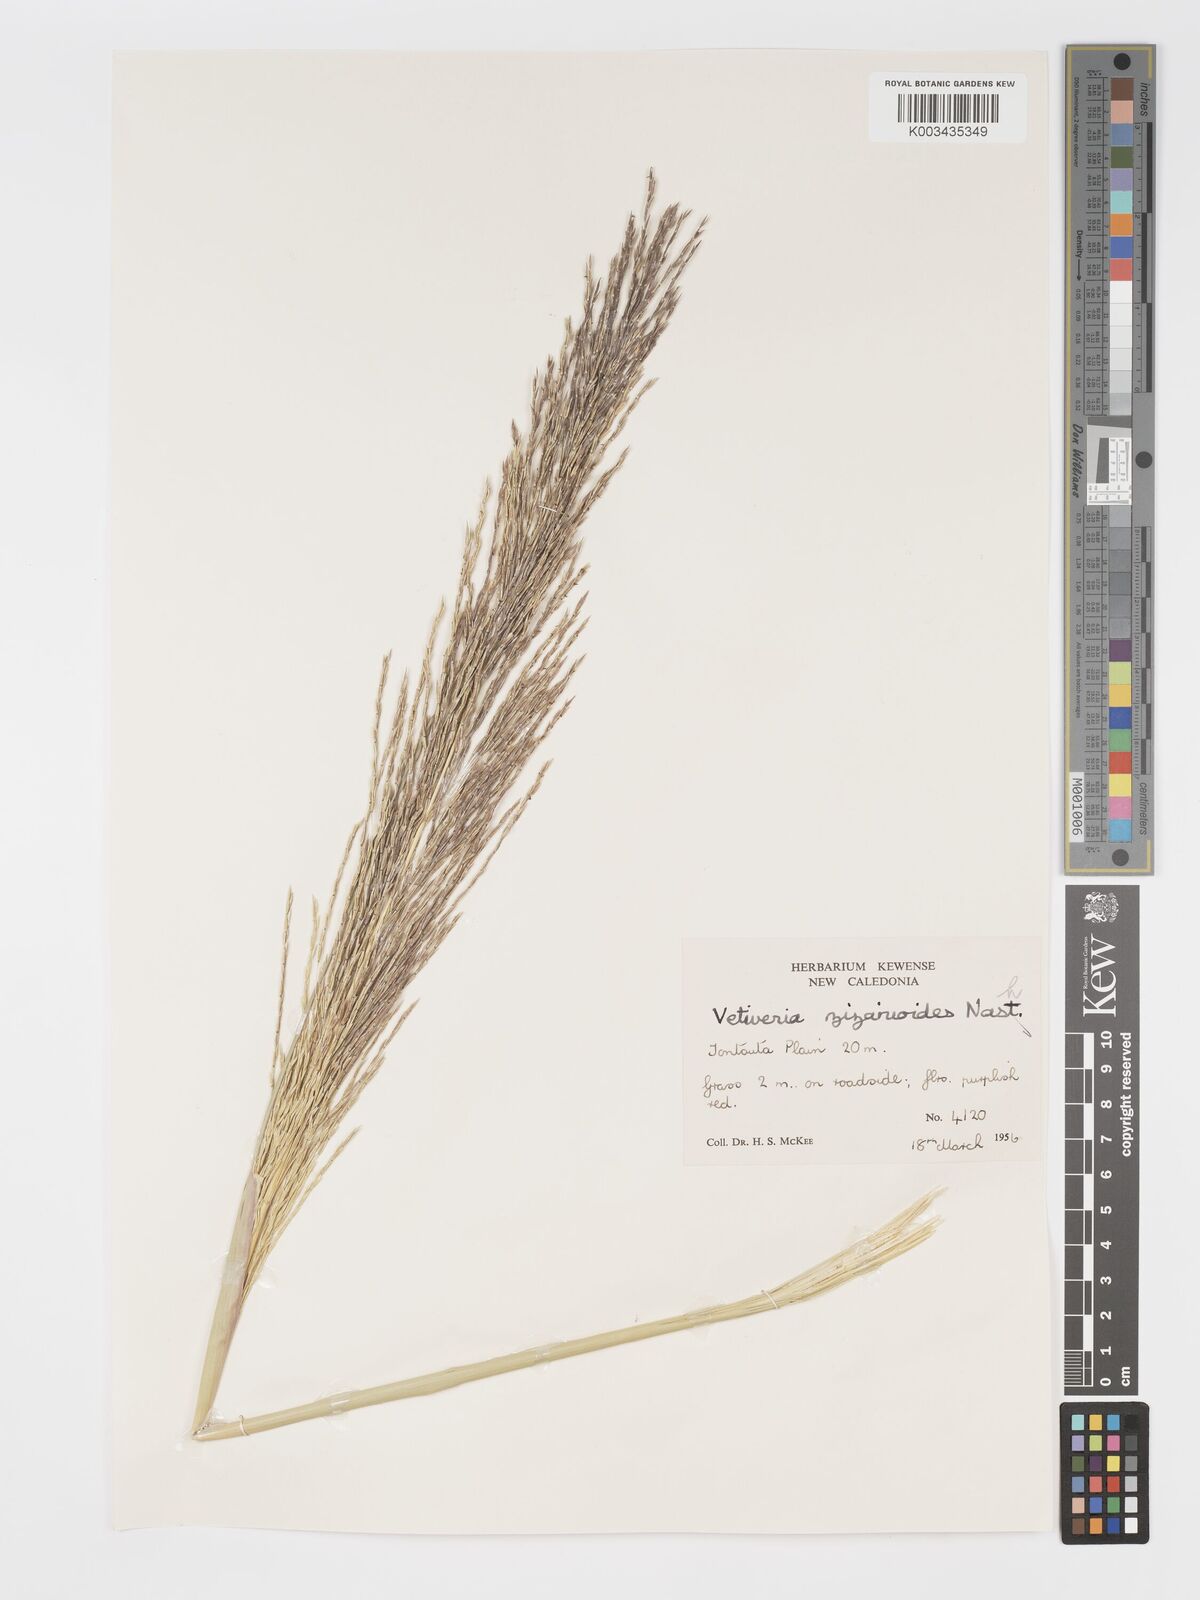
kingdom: Plantae
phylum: Tracheophyta
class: Liliopsida
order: Poales
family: Poaceae
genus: Chrysopogon
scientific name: Chrysopogon zizanioides
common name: False beardgrass
